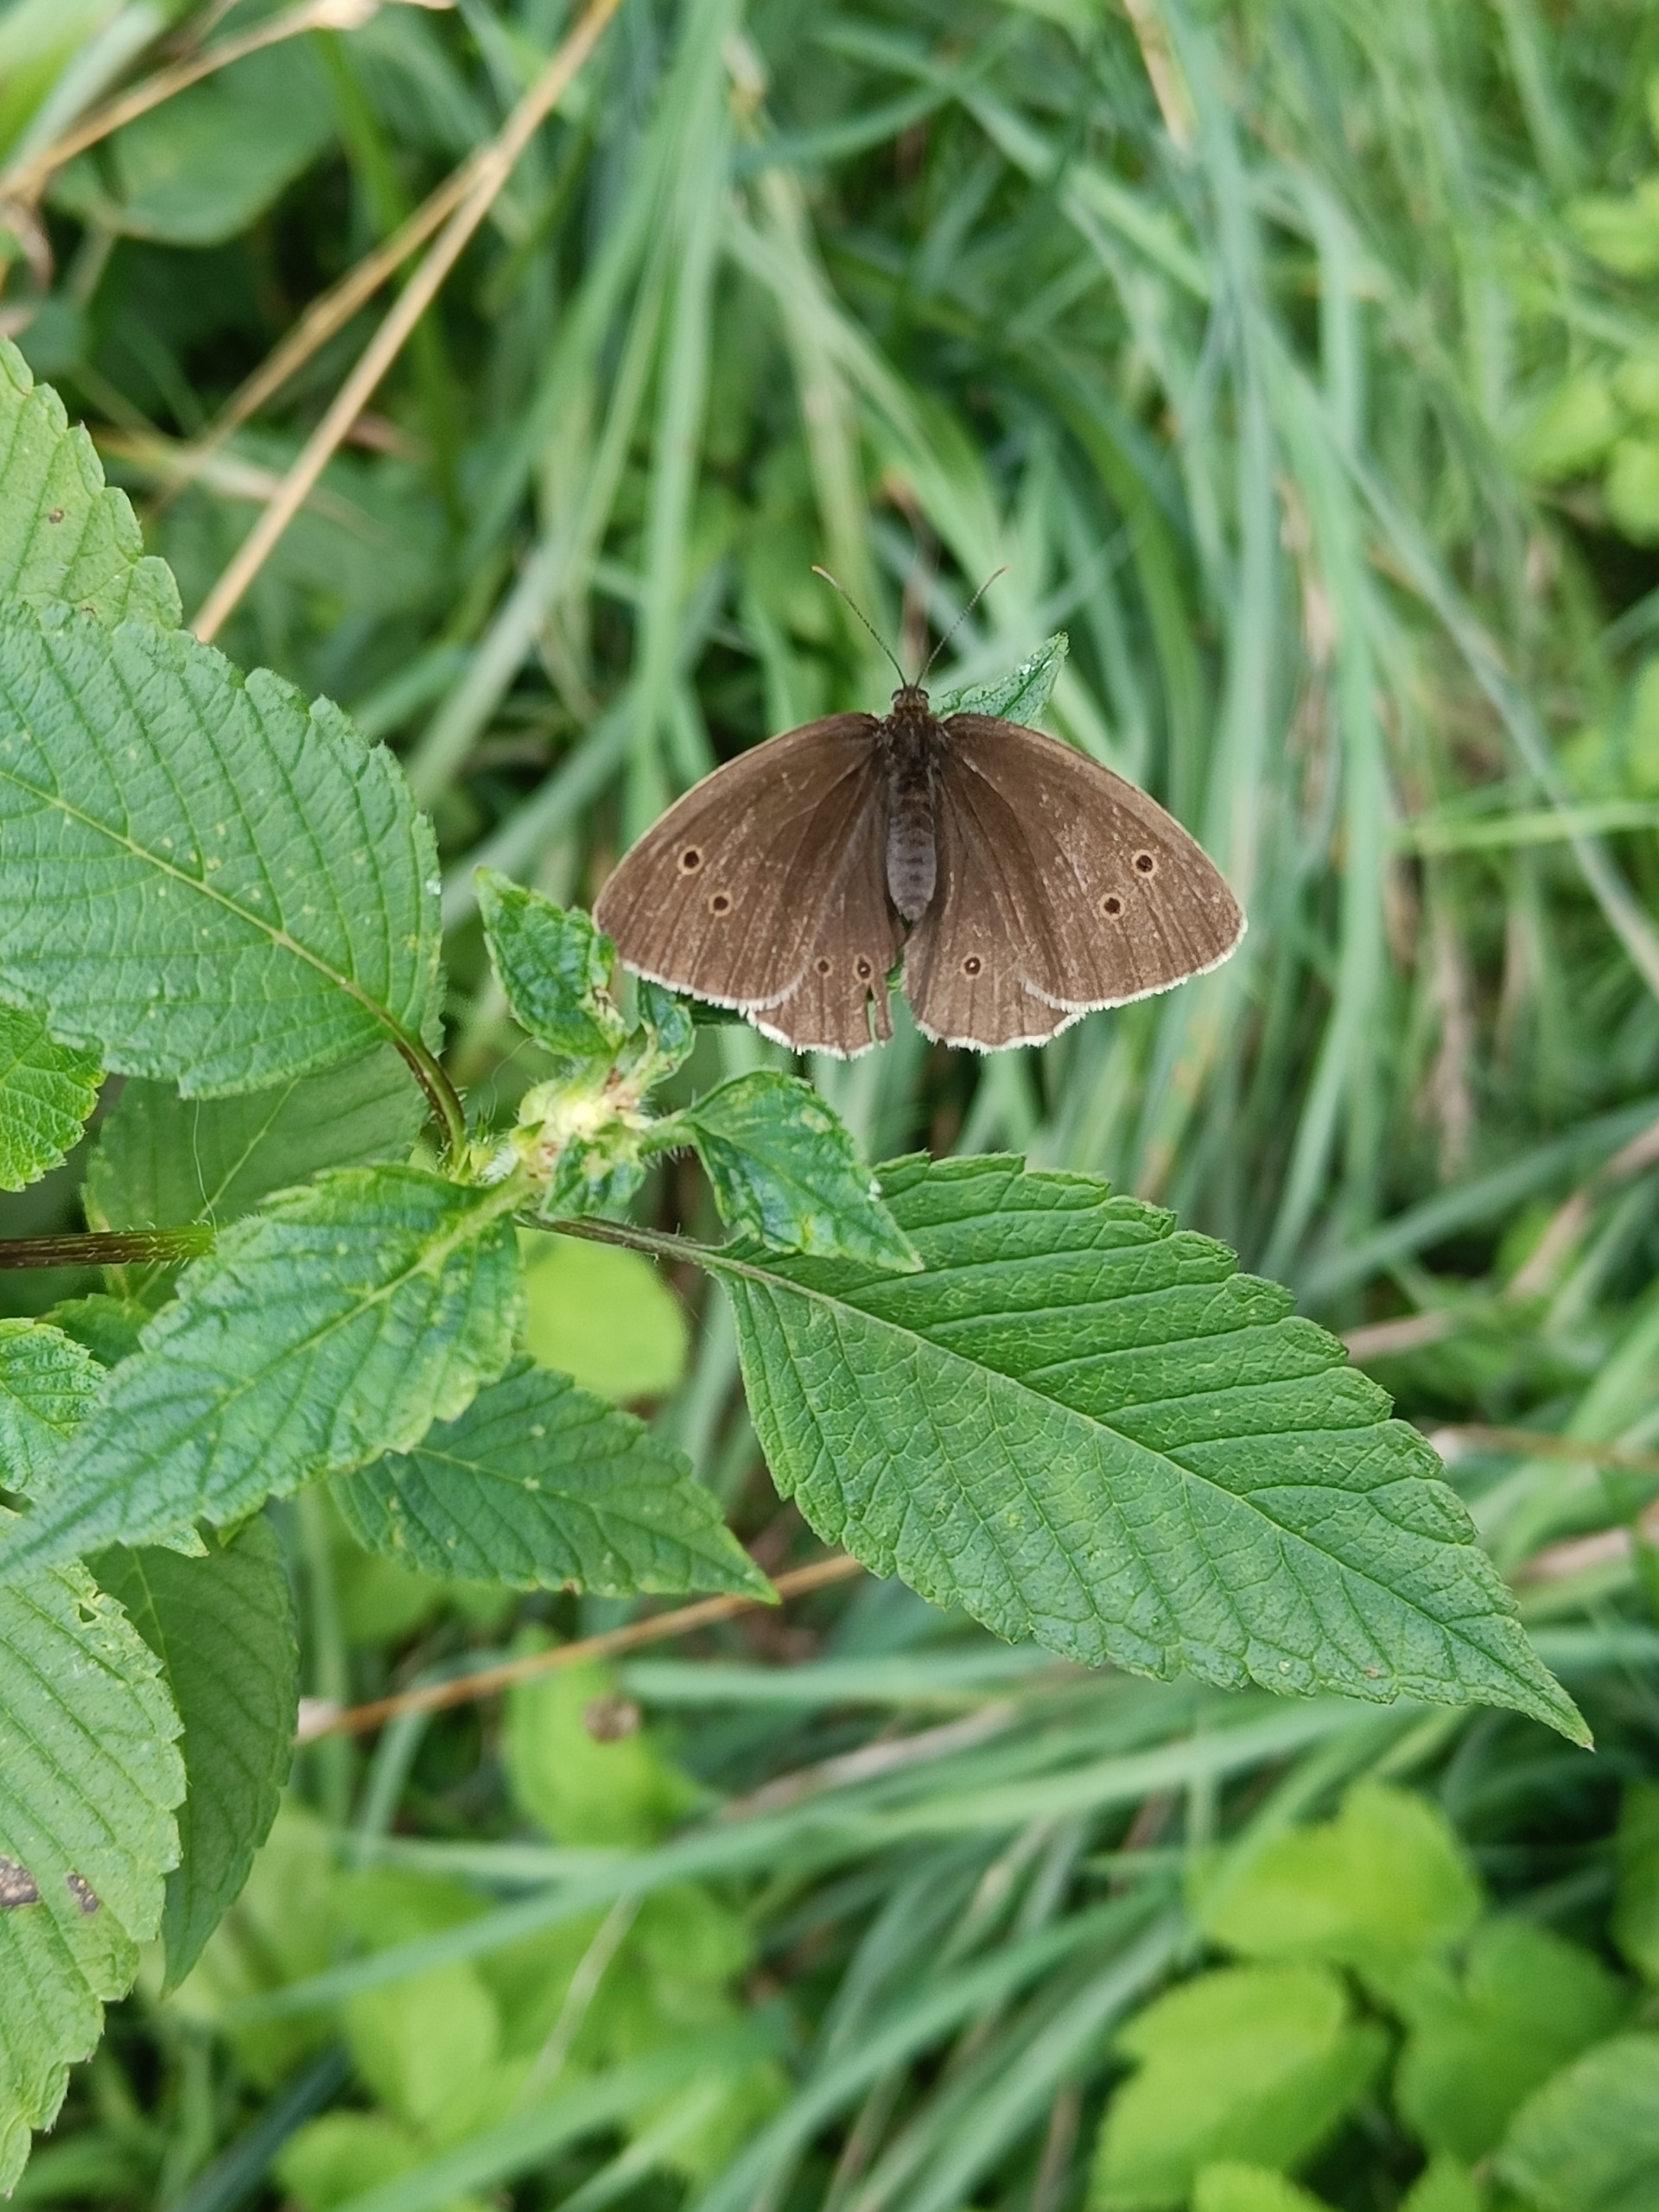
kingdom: Animalia
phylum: Arthropoda
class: Insecta
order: Lepidoptera
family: Nymphalidae
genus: Aphantopus
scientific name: Aphantopus hyperantus
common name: Engrandøje
